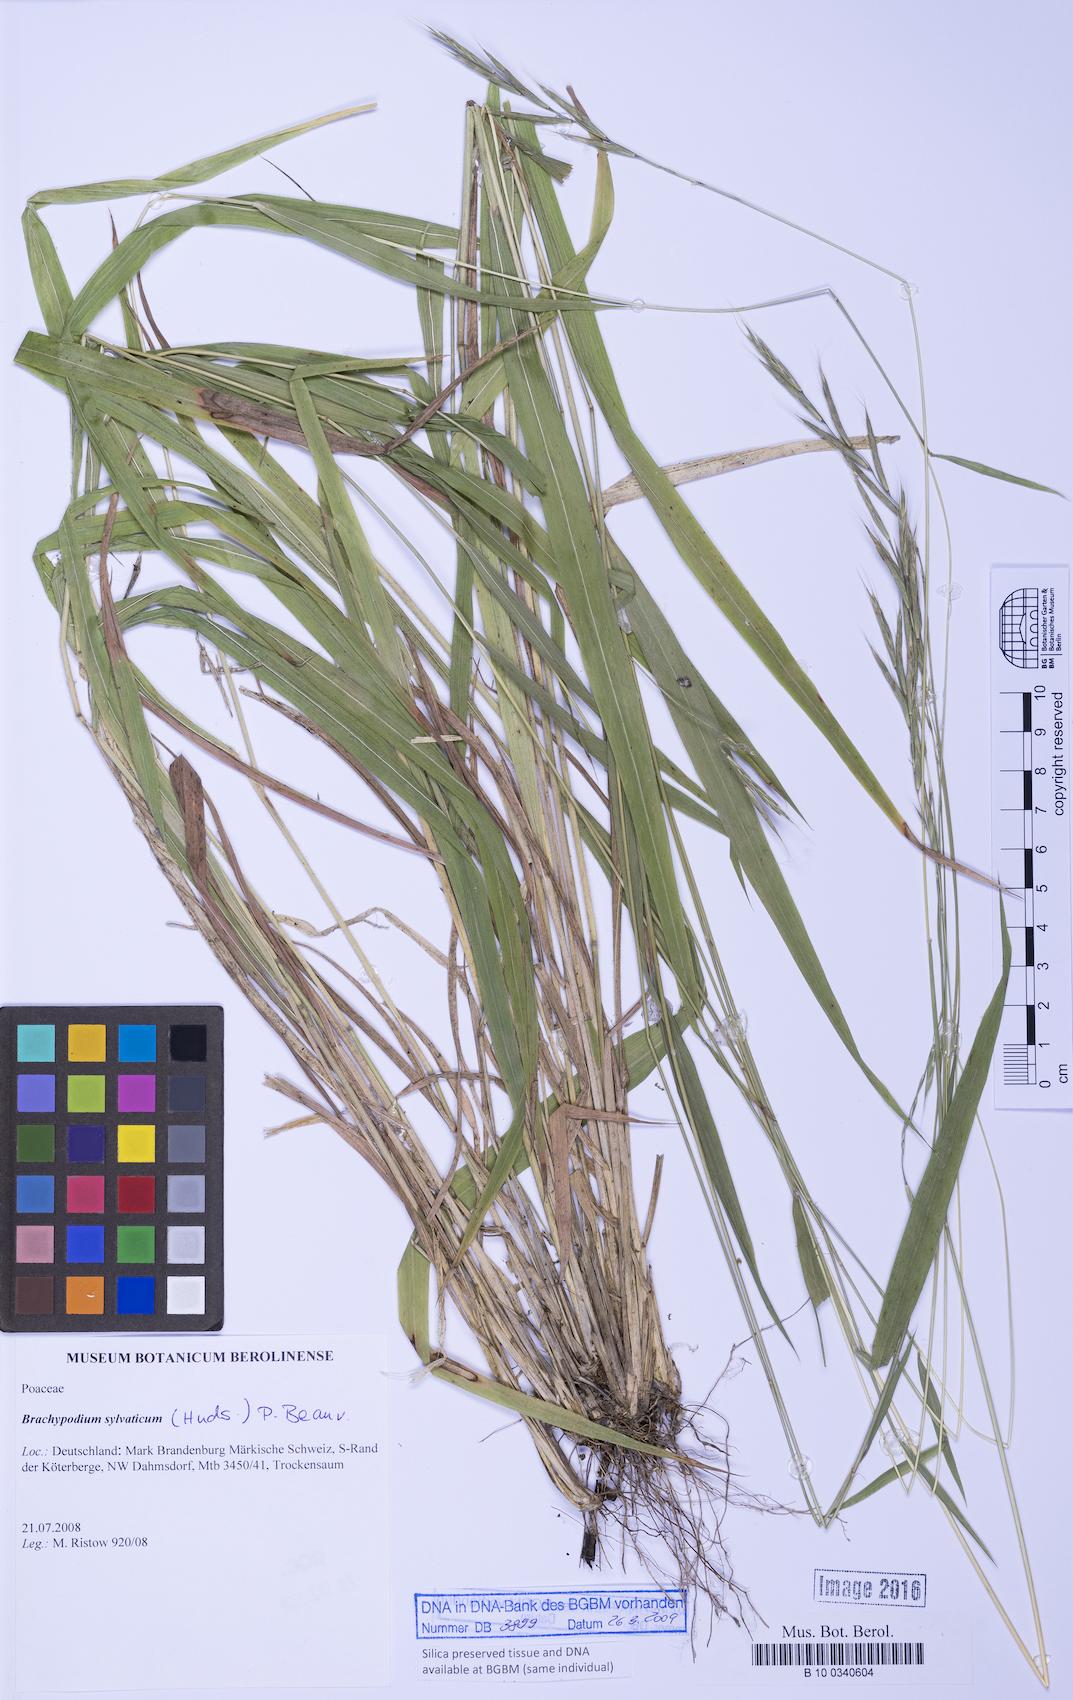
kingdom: Plantae
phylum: Tracheophyta
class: Liliopsida
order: Poales
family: Poaceae
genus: Brachypodium
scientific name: Brachypodium sylvaticum
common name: False-brome
